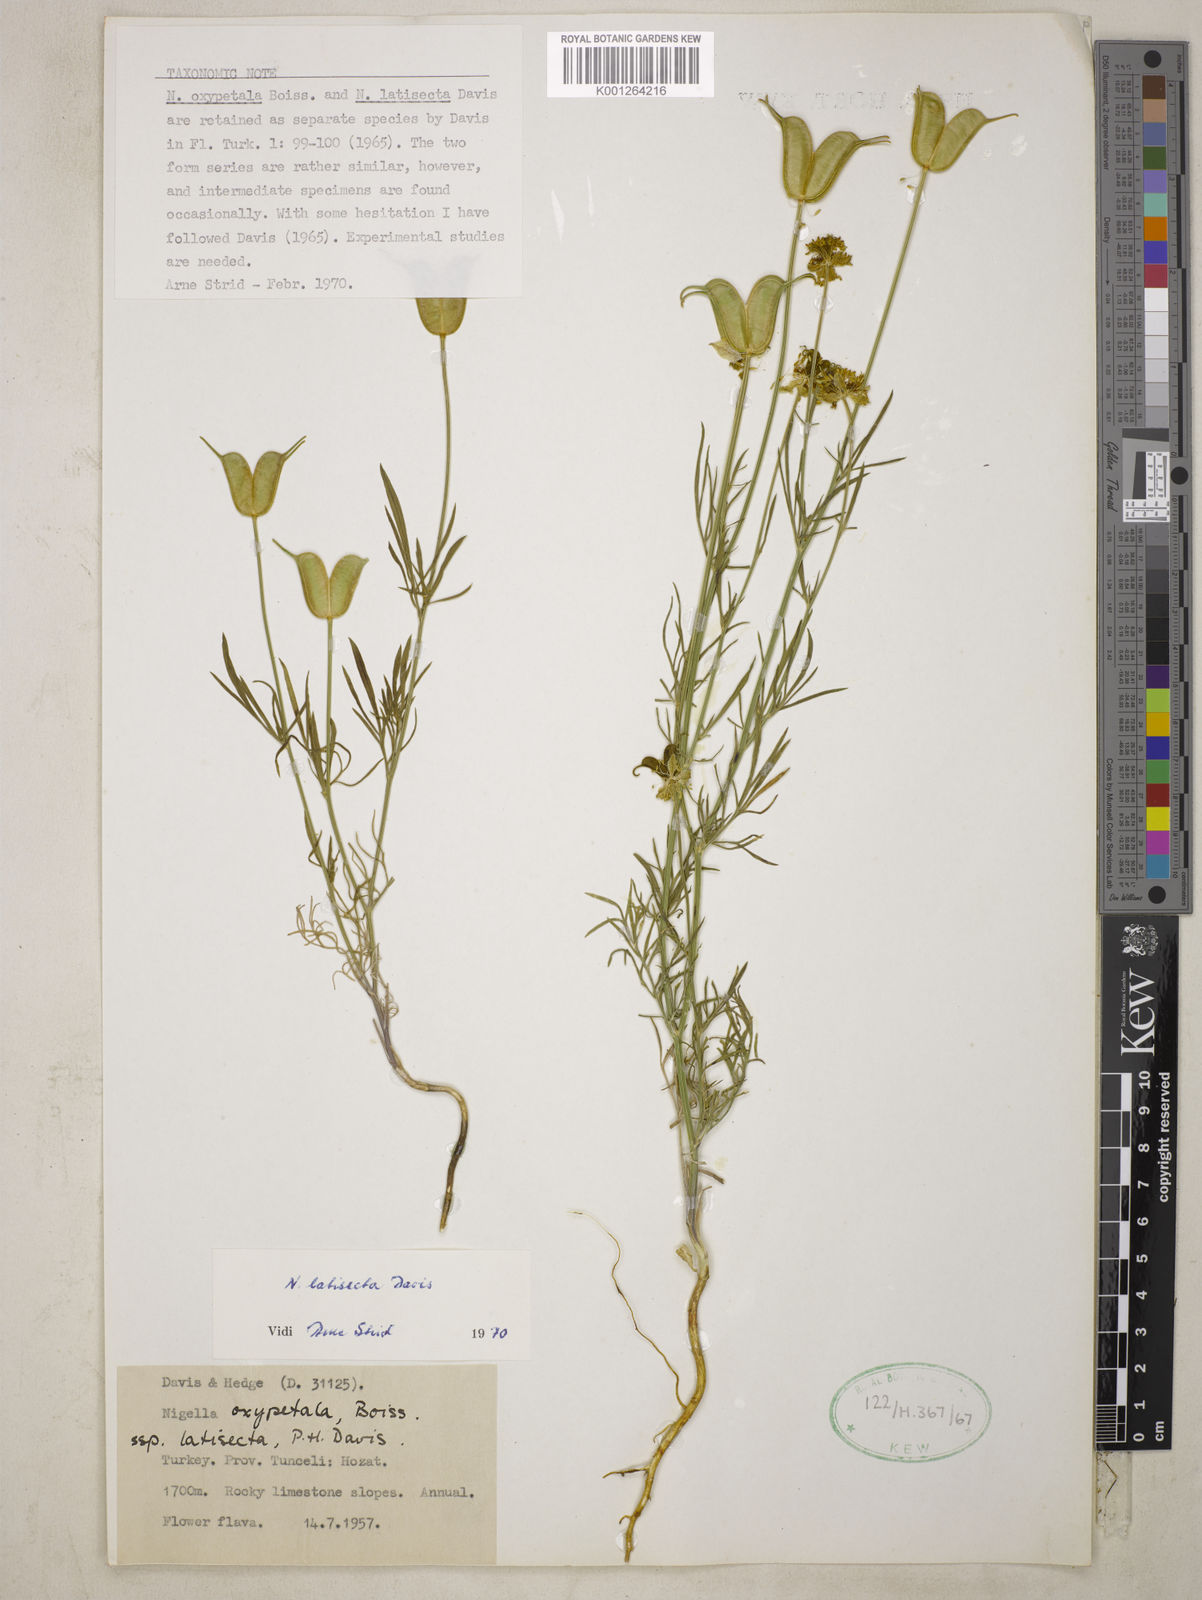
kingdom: Plantae
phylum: Tracheophyta
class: Magnoliopsida
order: Ranunculales
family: Ranunculaceae
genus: Nigella
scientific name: Nigella oxypetala
